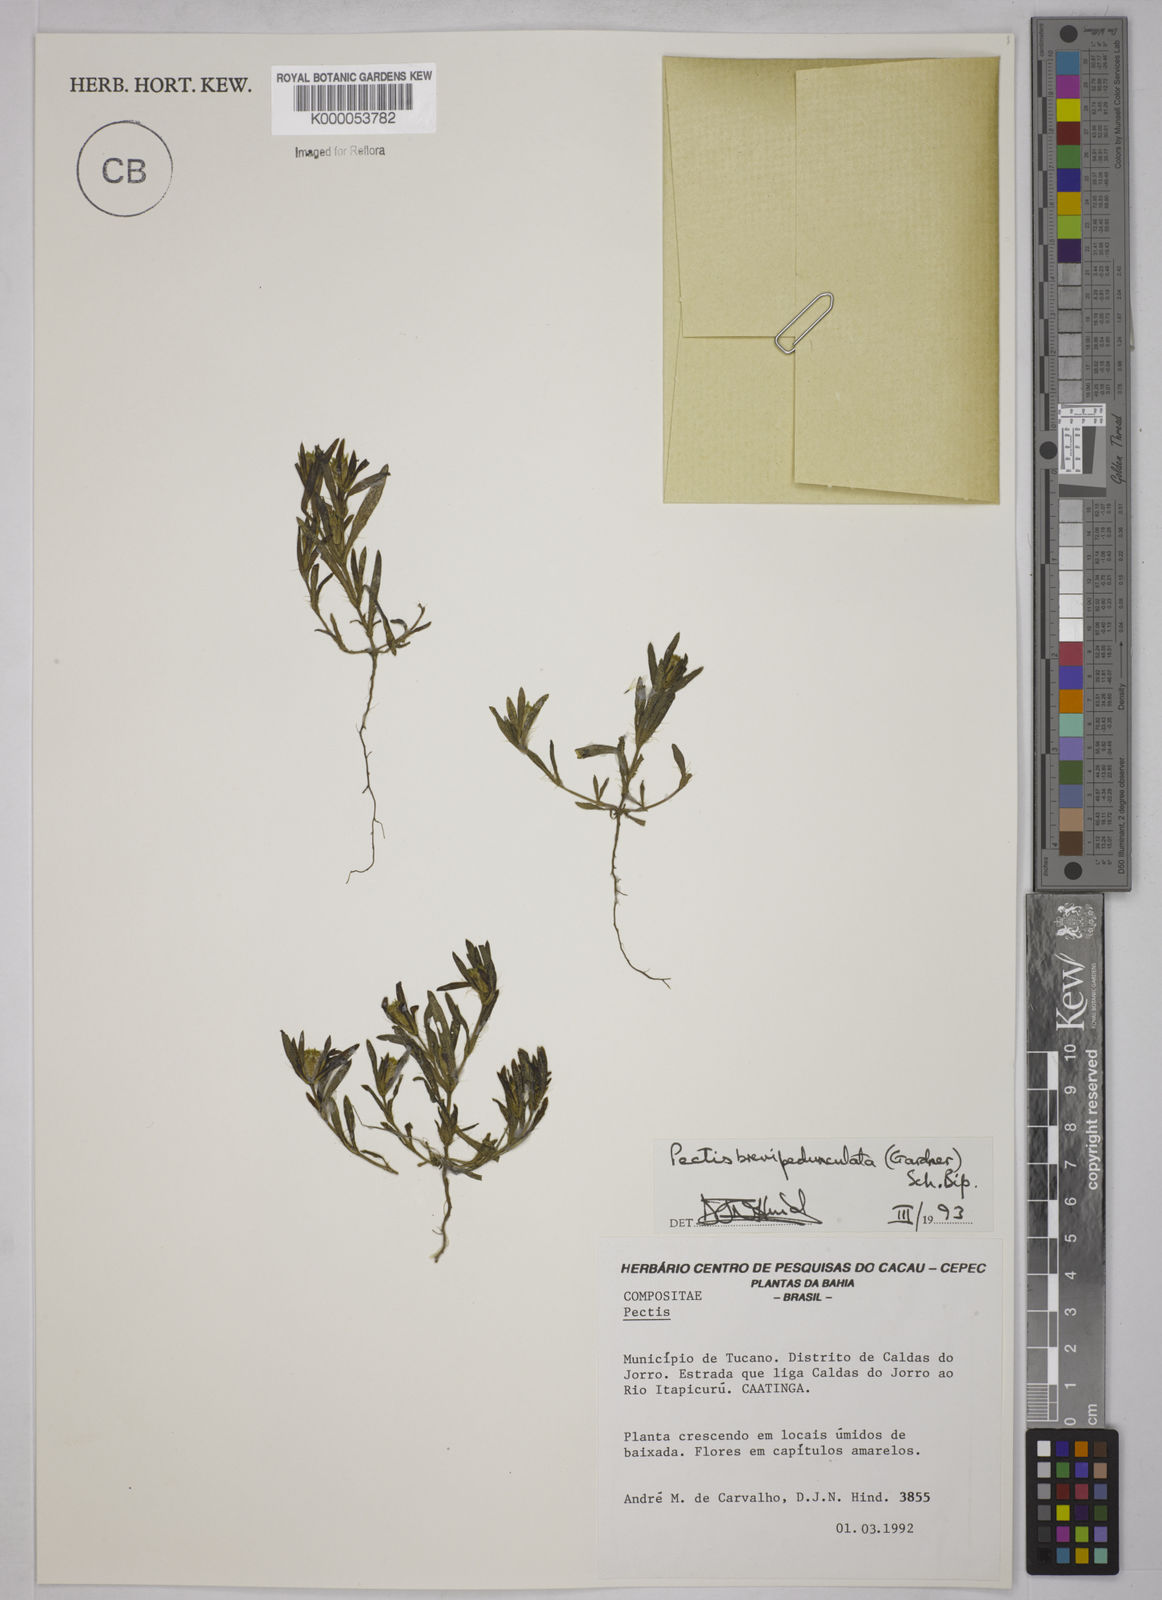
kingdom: Plantae
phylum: Tracheophyta
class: Magnoliopsida
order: Asterales
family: Asteraceae
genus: Pectis
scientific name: Pectis brevipedunculata
